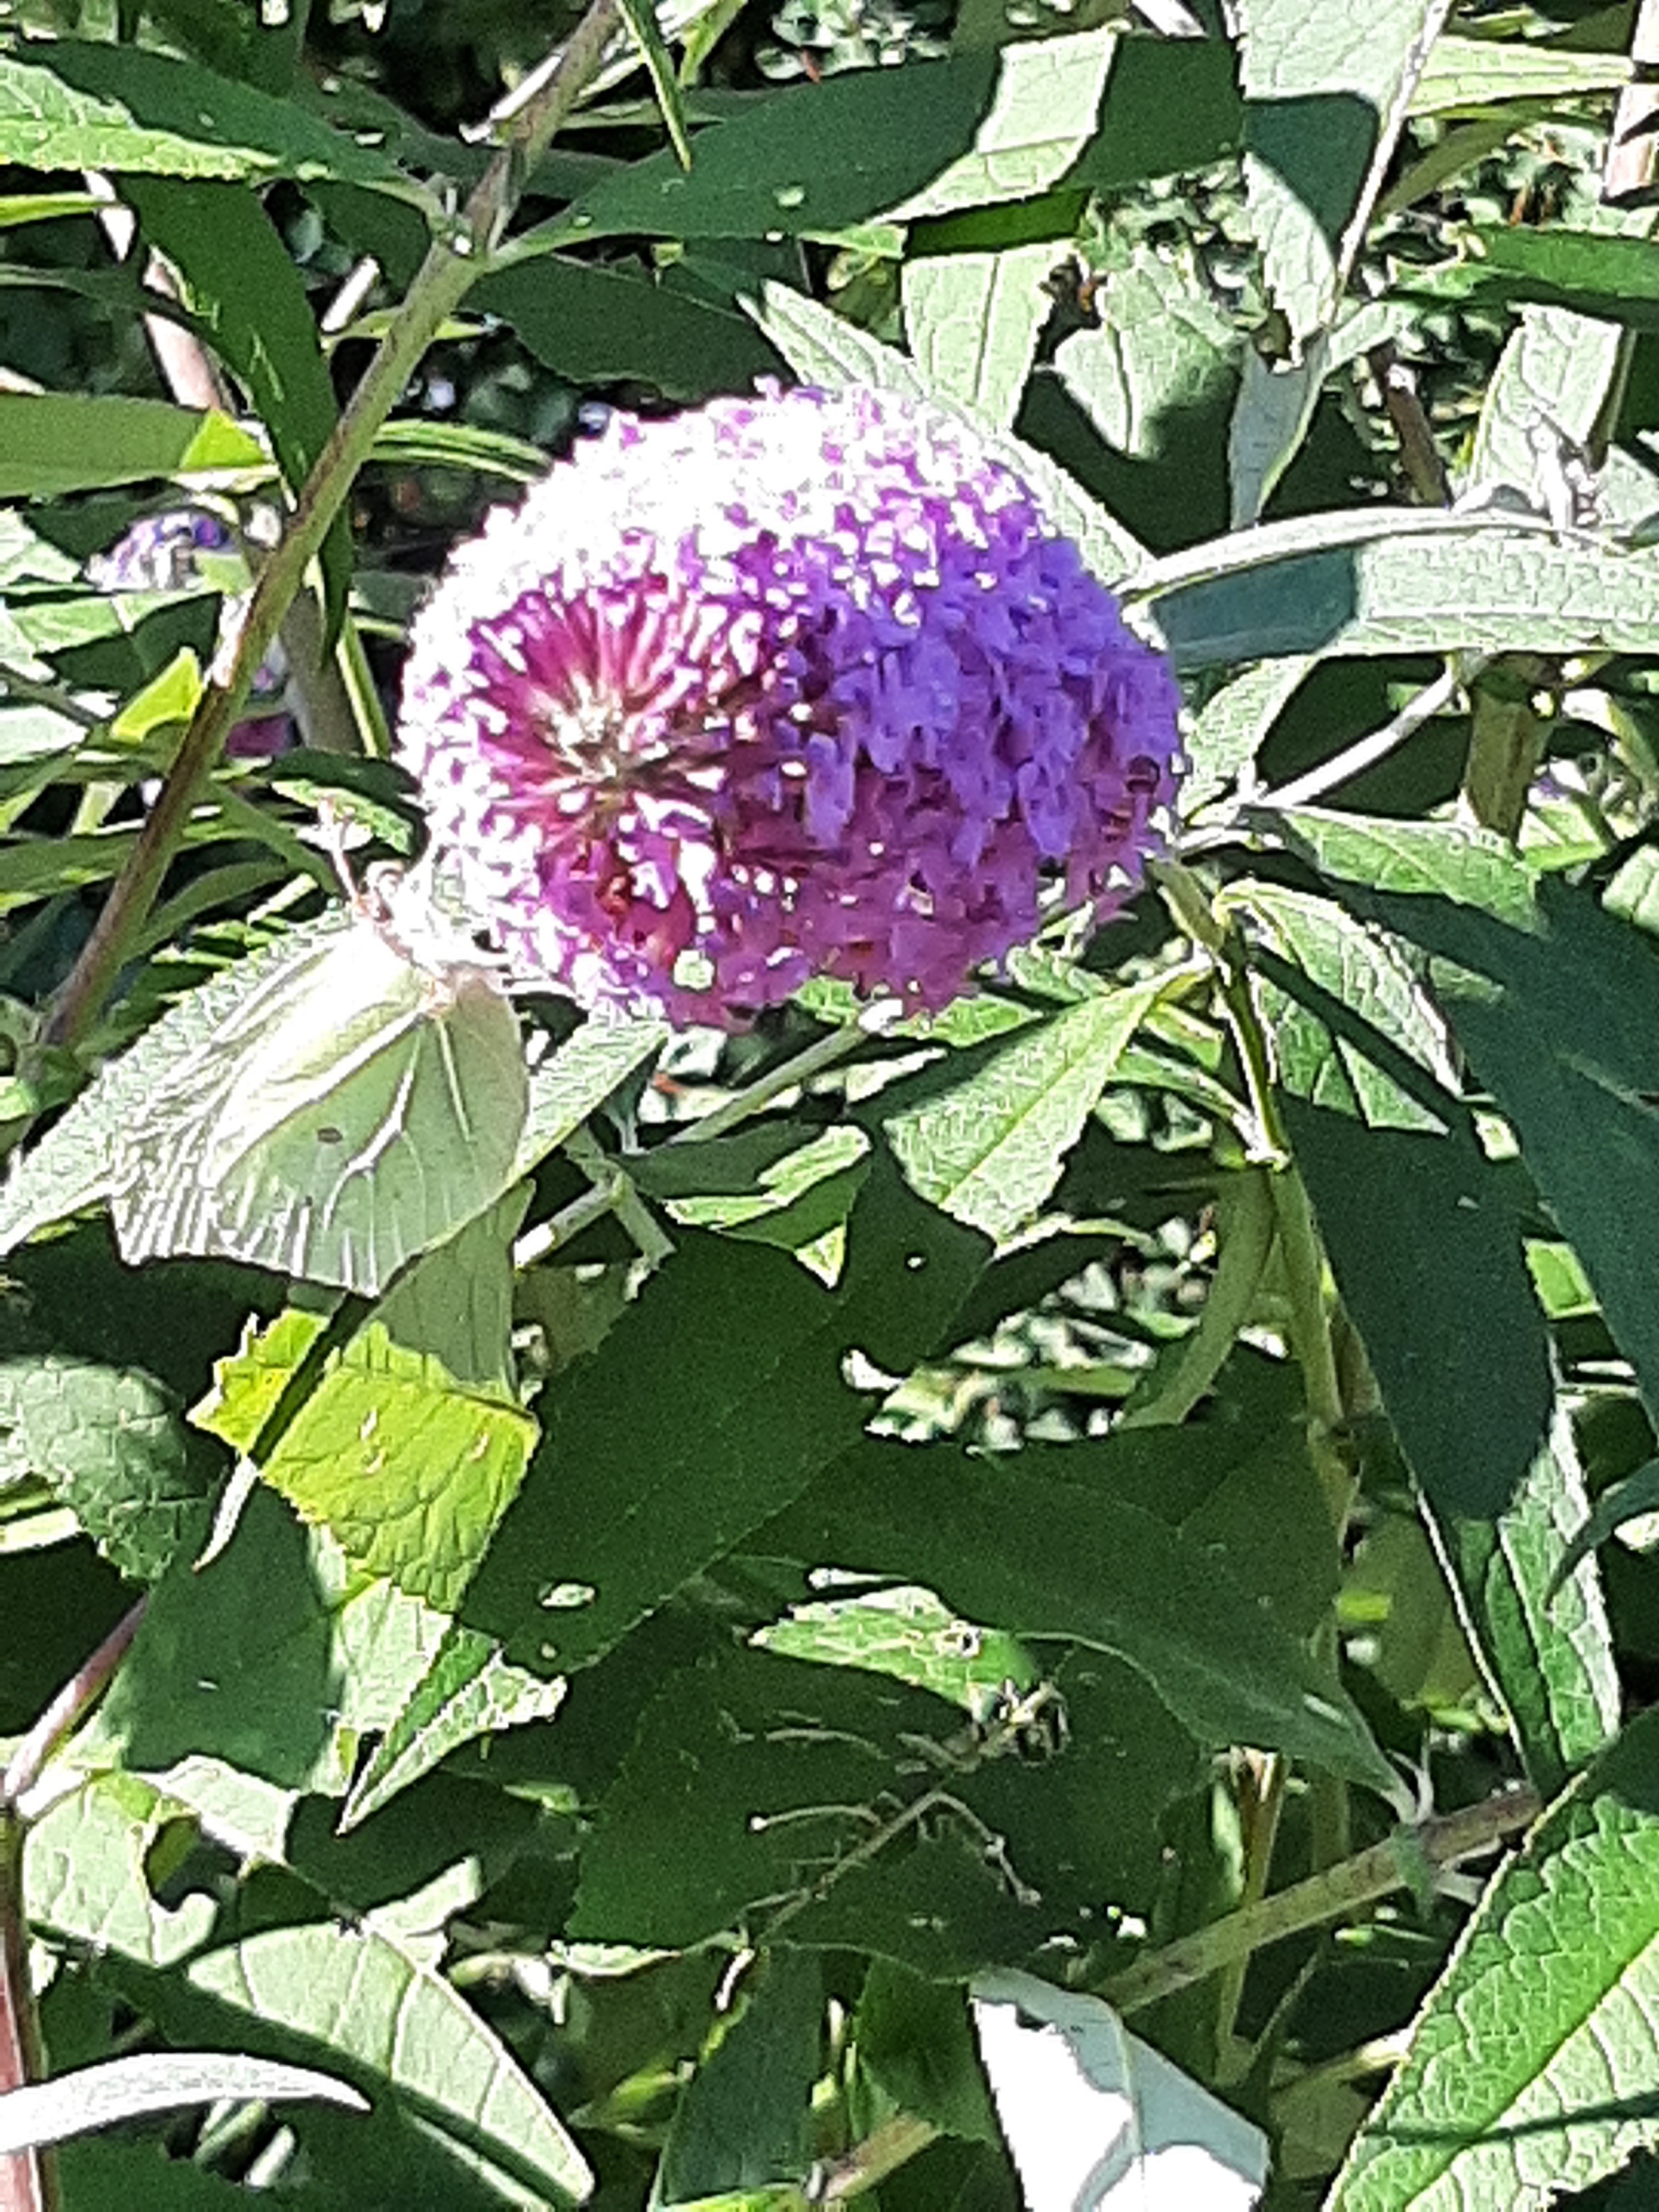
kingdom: Animalia
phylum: Arthropoda
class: Insecta
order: Lepidoptera
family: Pieridae
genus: Gonepteryx
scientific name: Gonepteryx rhamni
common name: Citronsommerfugl
